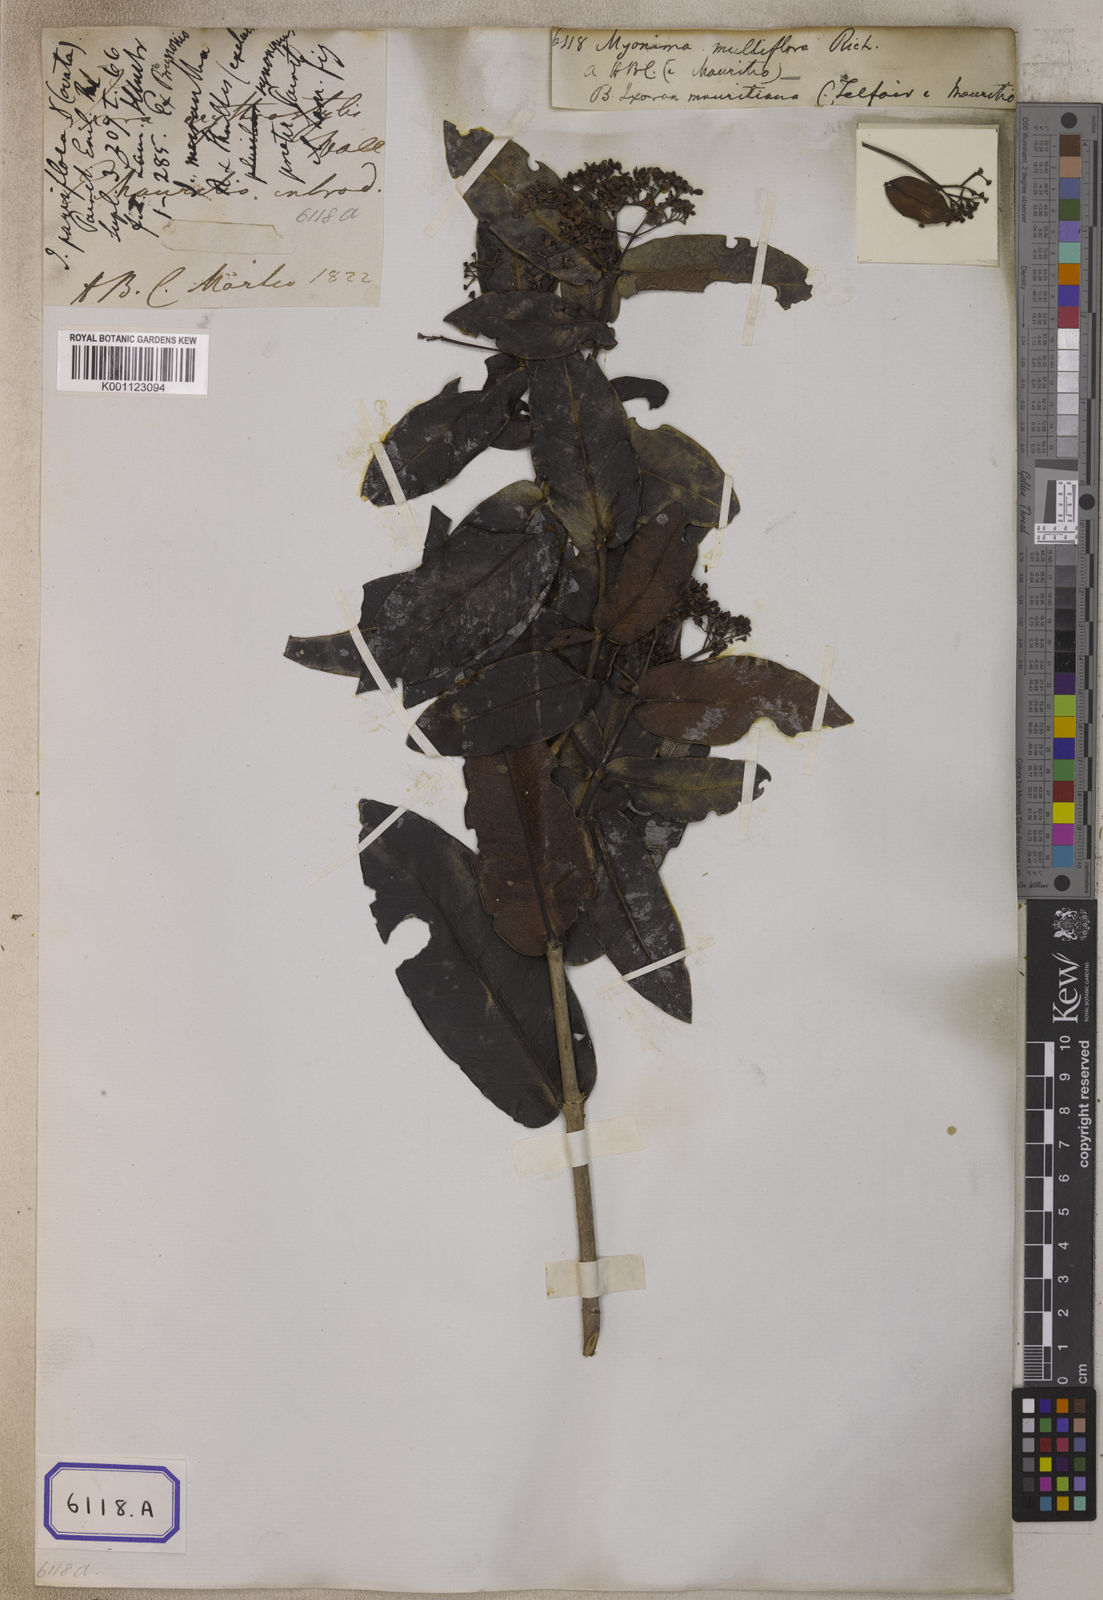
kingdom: Plantae
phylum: Tracheophyta
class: Magnoliopsida
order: Gentianales
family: Rubiaceae
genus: Ixora
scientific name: Ixora
